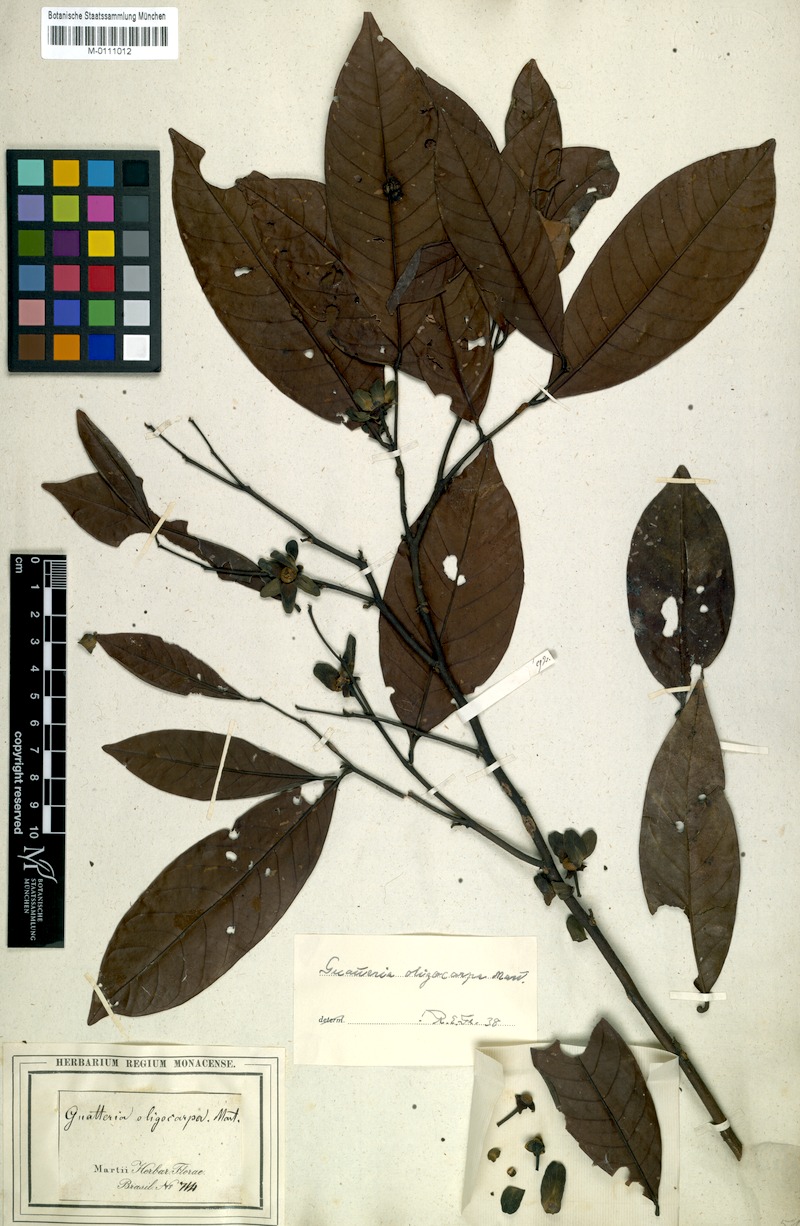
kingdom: Plantae
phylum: Tracheophyta
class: Magnoliopsida
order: Magnoliales
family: Annonaceae
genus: Guatteria
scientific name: Guatteria oligocarpa
